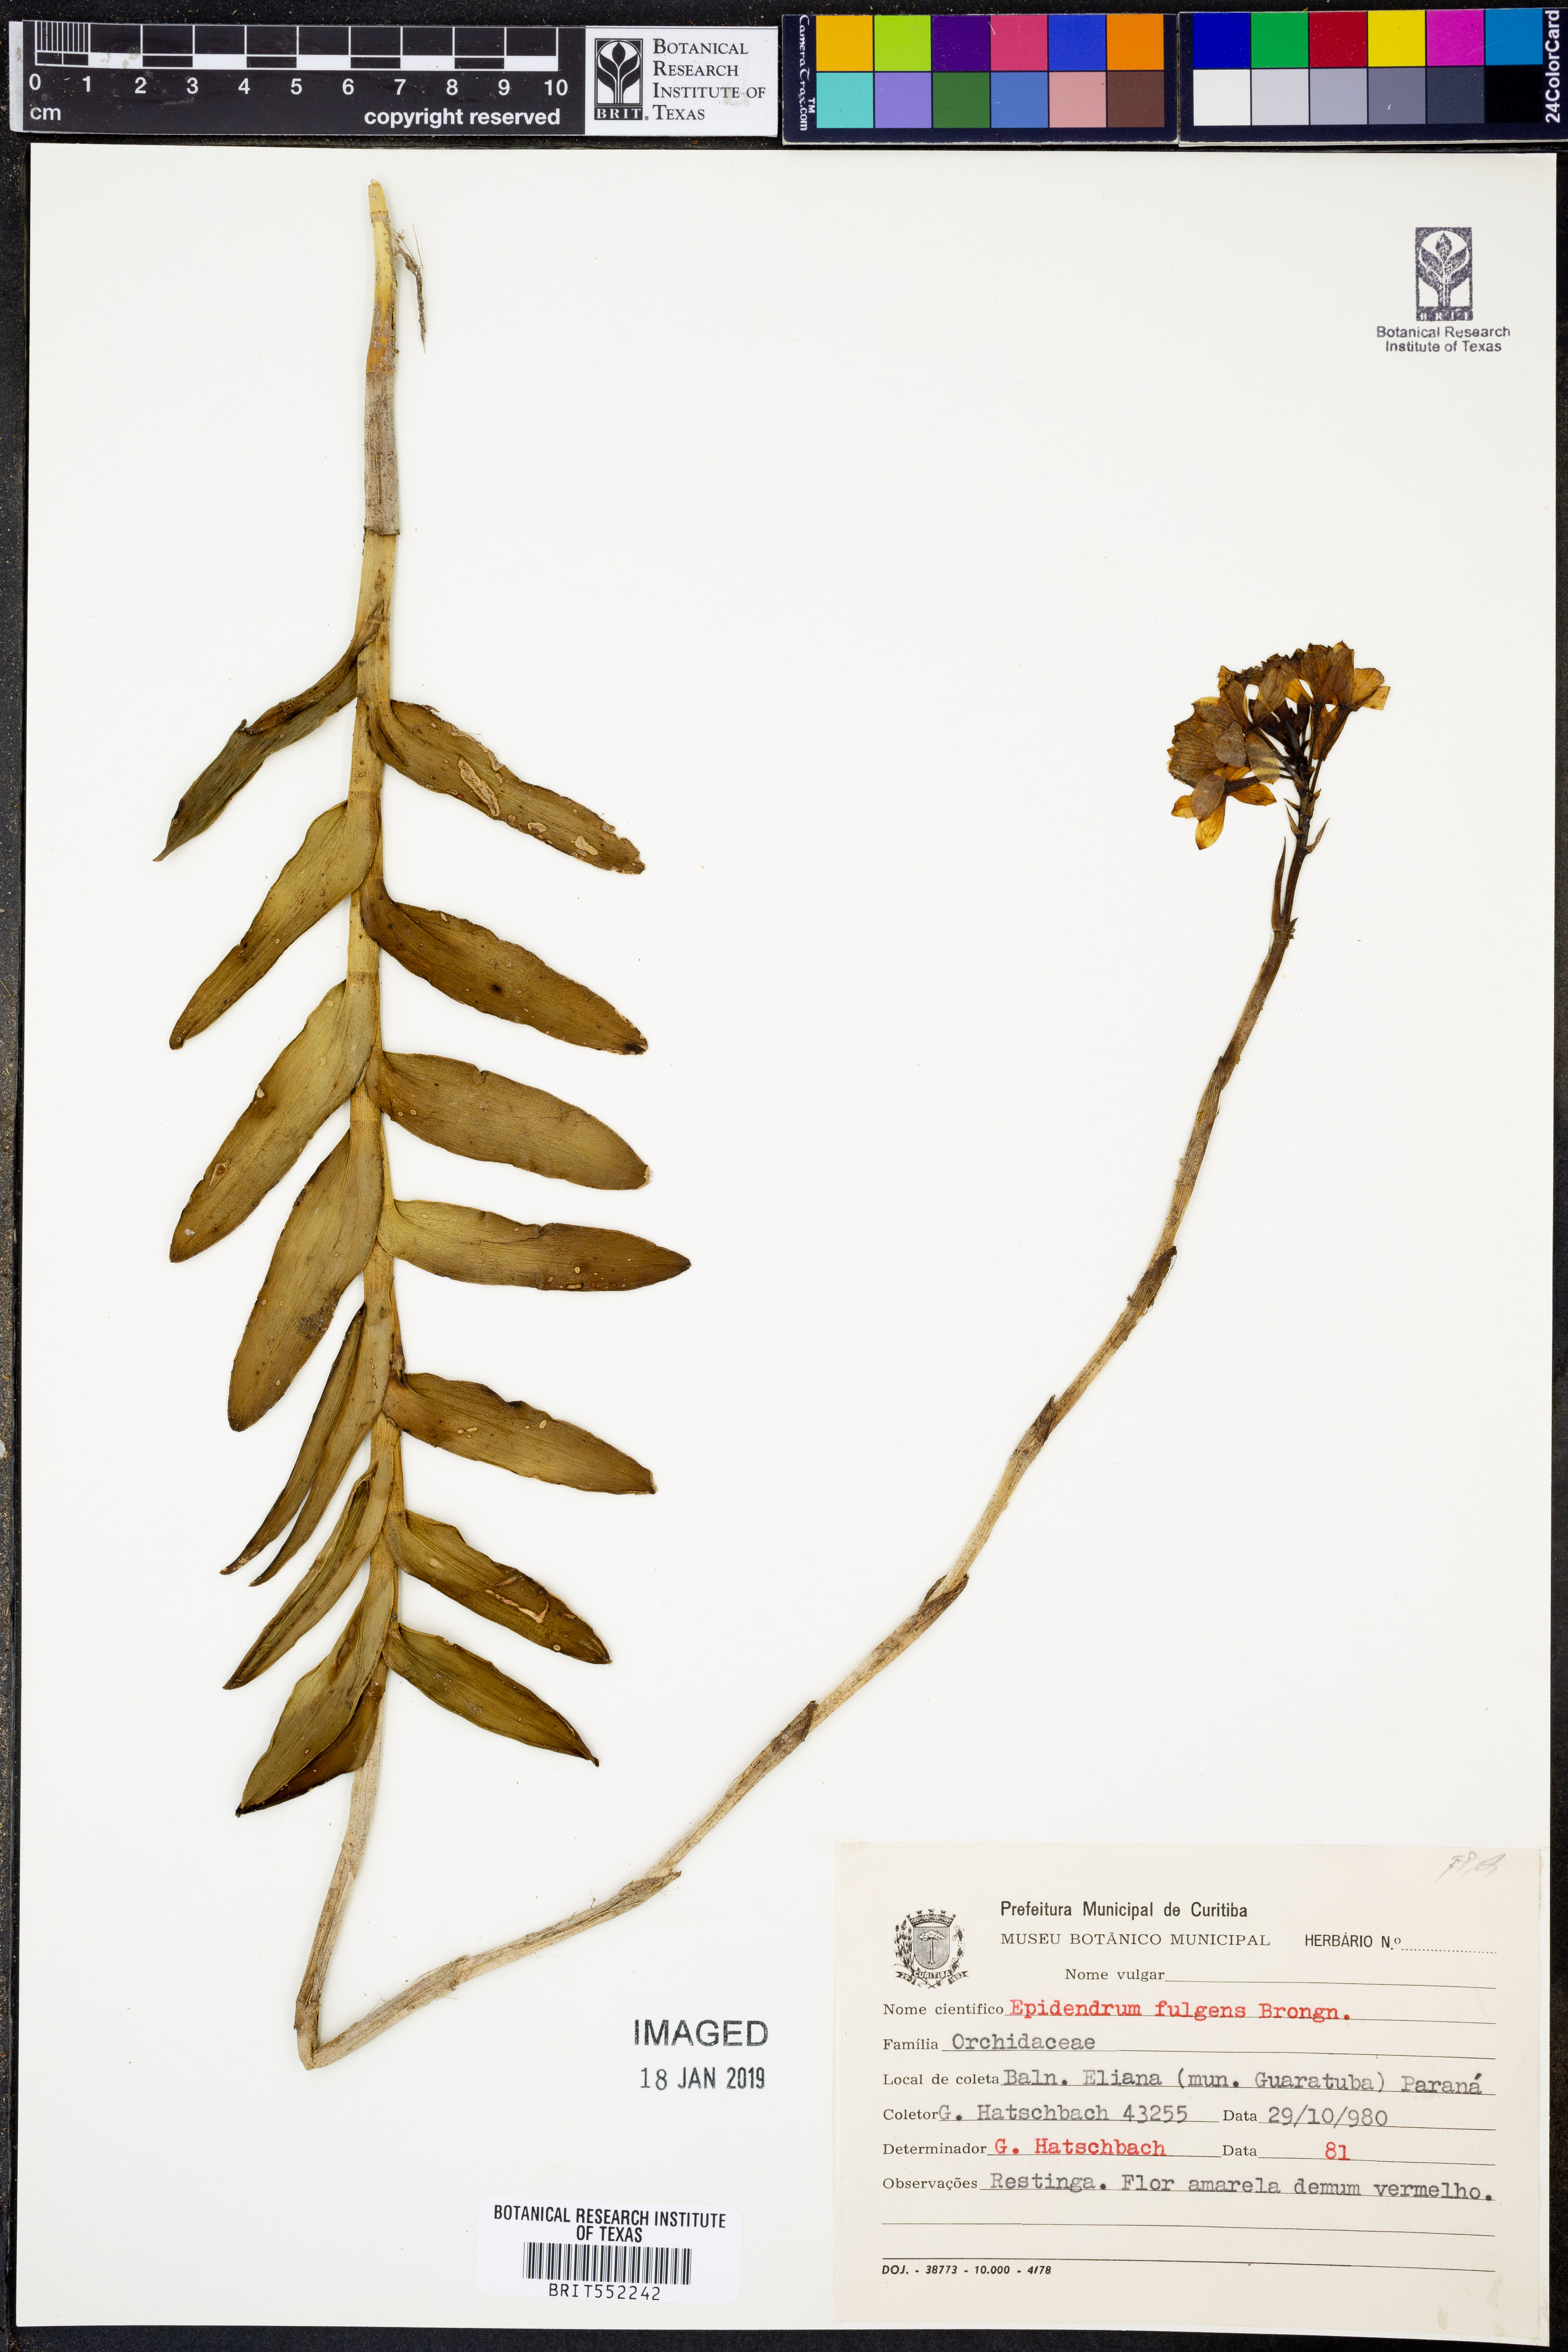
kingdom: Plantae
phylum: Tracheophyta
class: Liliopsida
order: Asparagales
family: Orchidaceae
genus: Epidendrum
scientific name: Epidendrum fulgens
